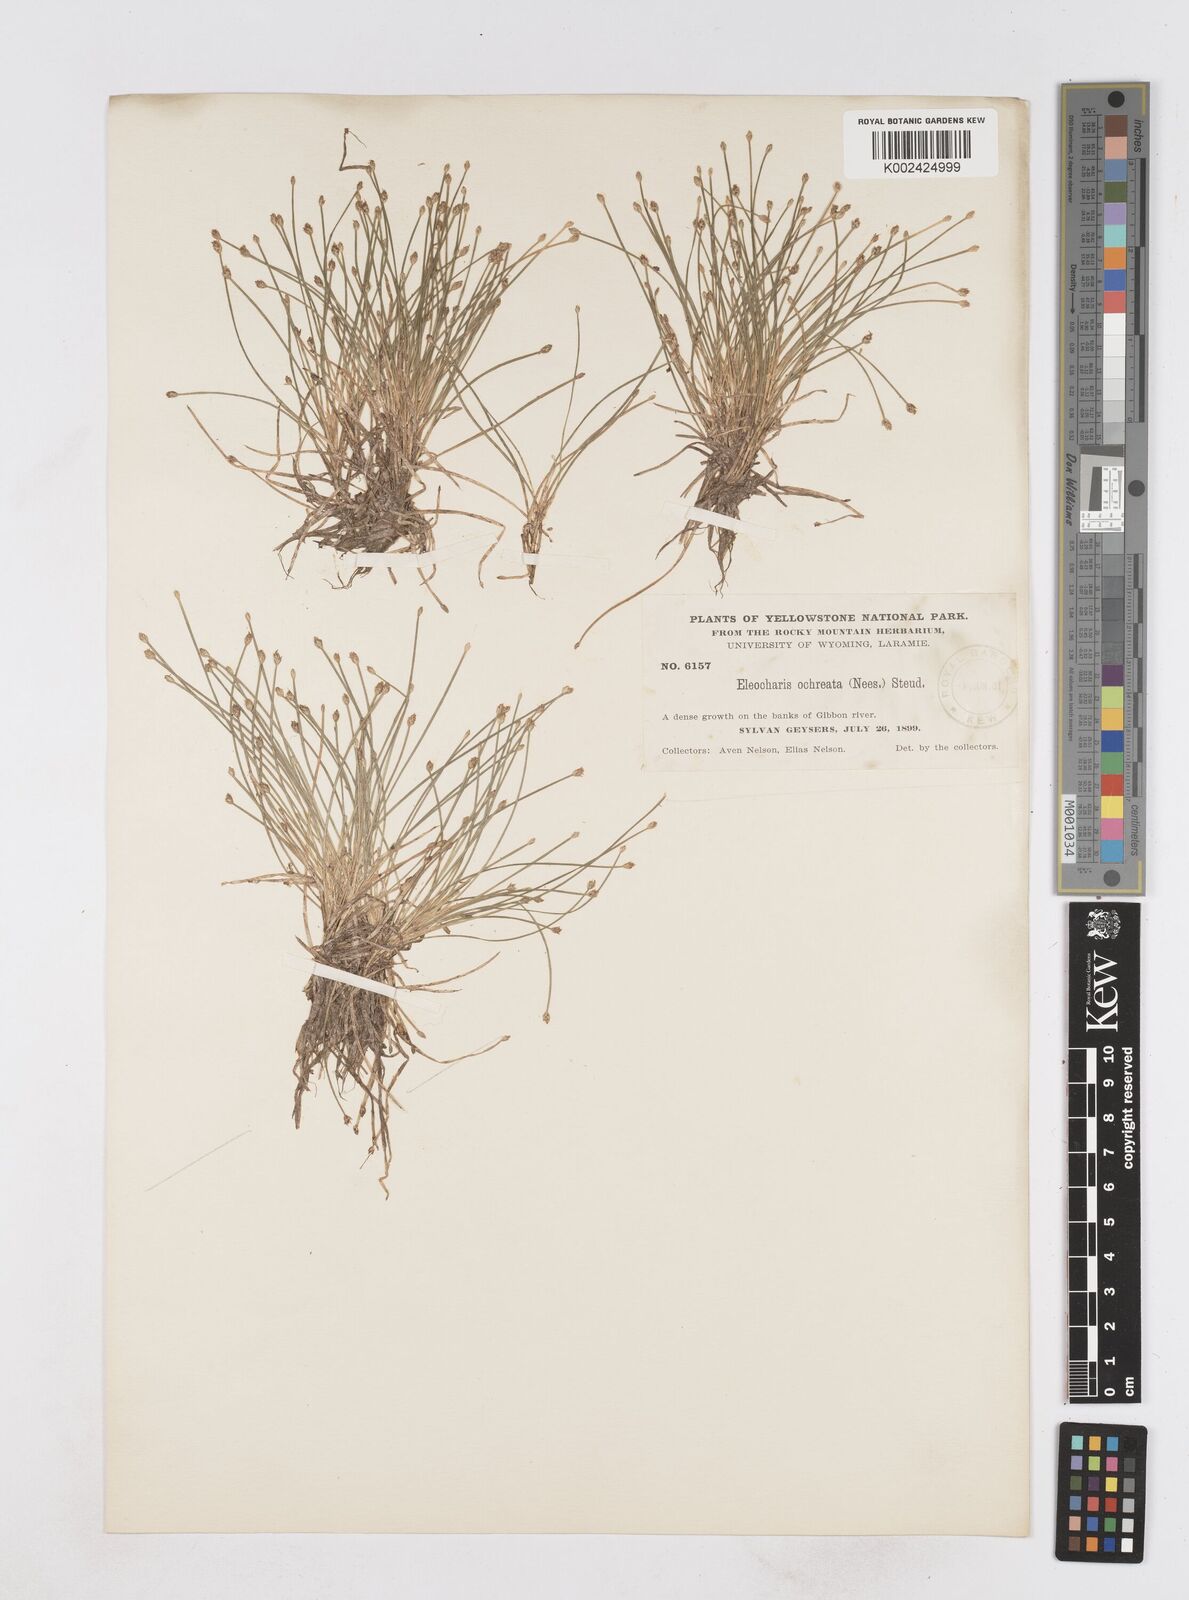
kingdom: Plantae
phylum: Tracheophyta
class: Liliopsida
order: Poales
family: Cyperaceae
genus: Eleocharis
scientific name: Eleocharis flavescens
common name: Yellow spikerush
